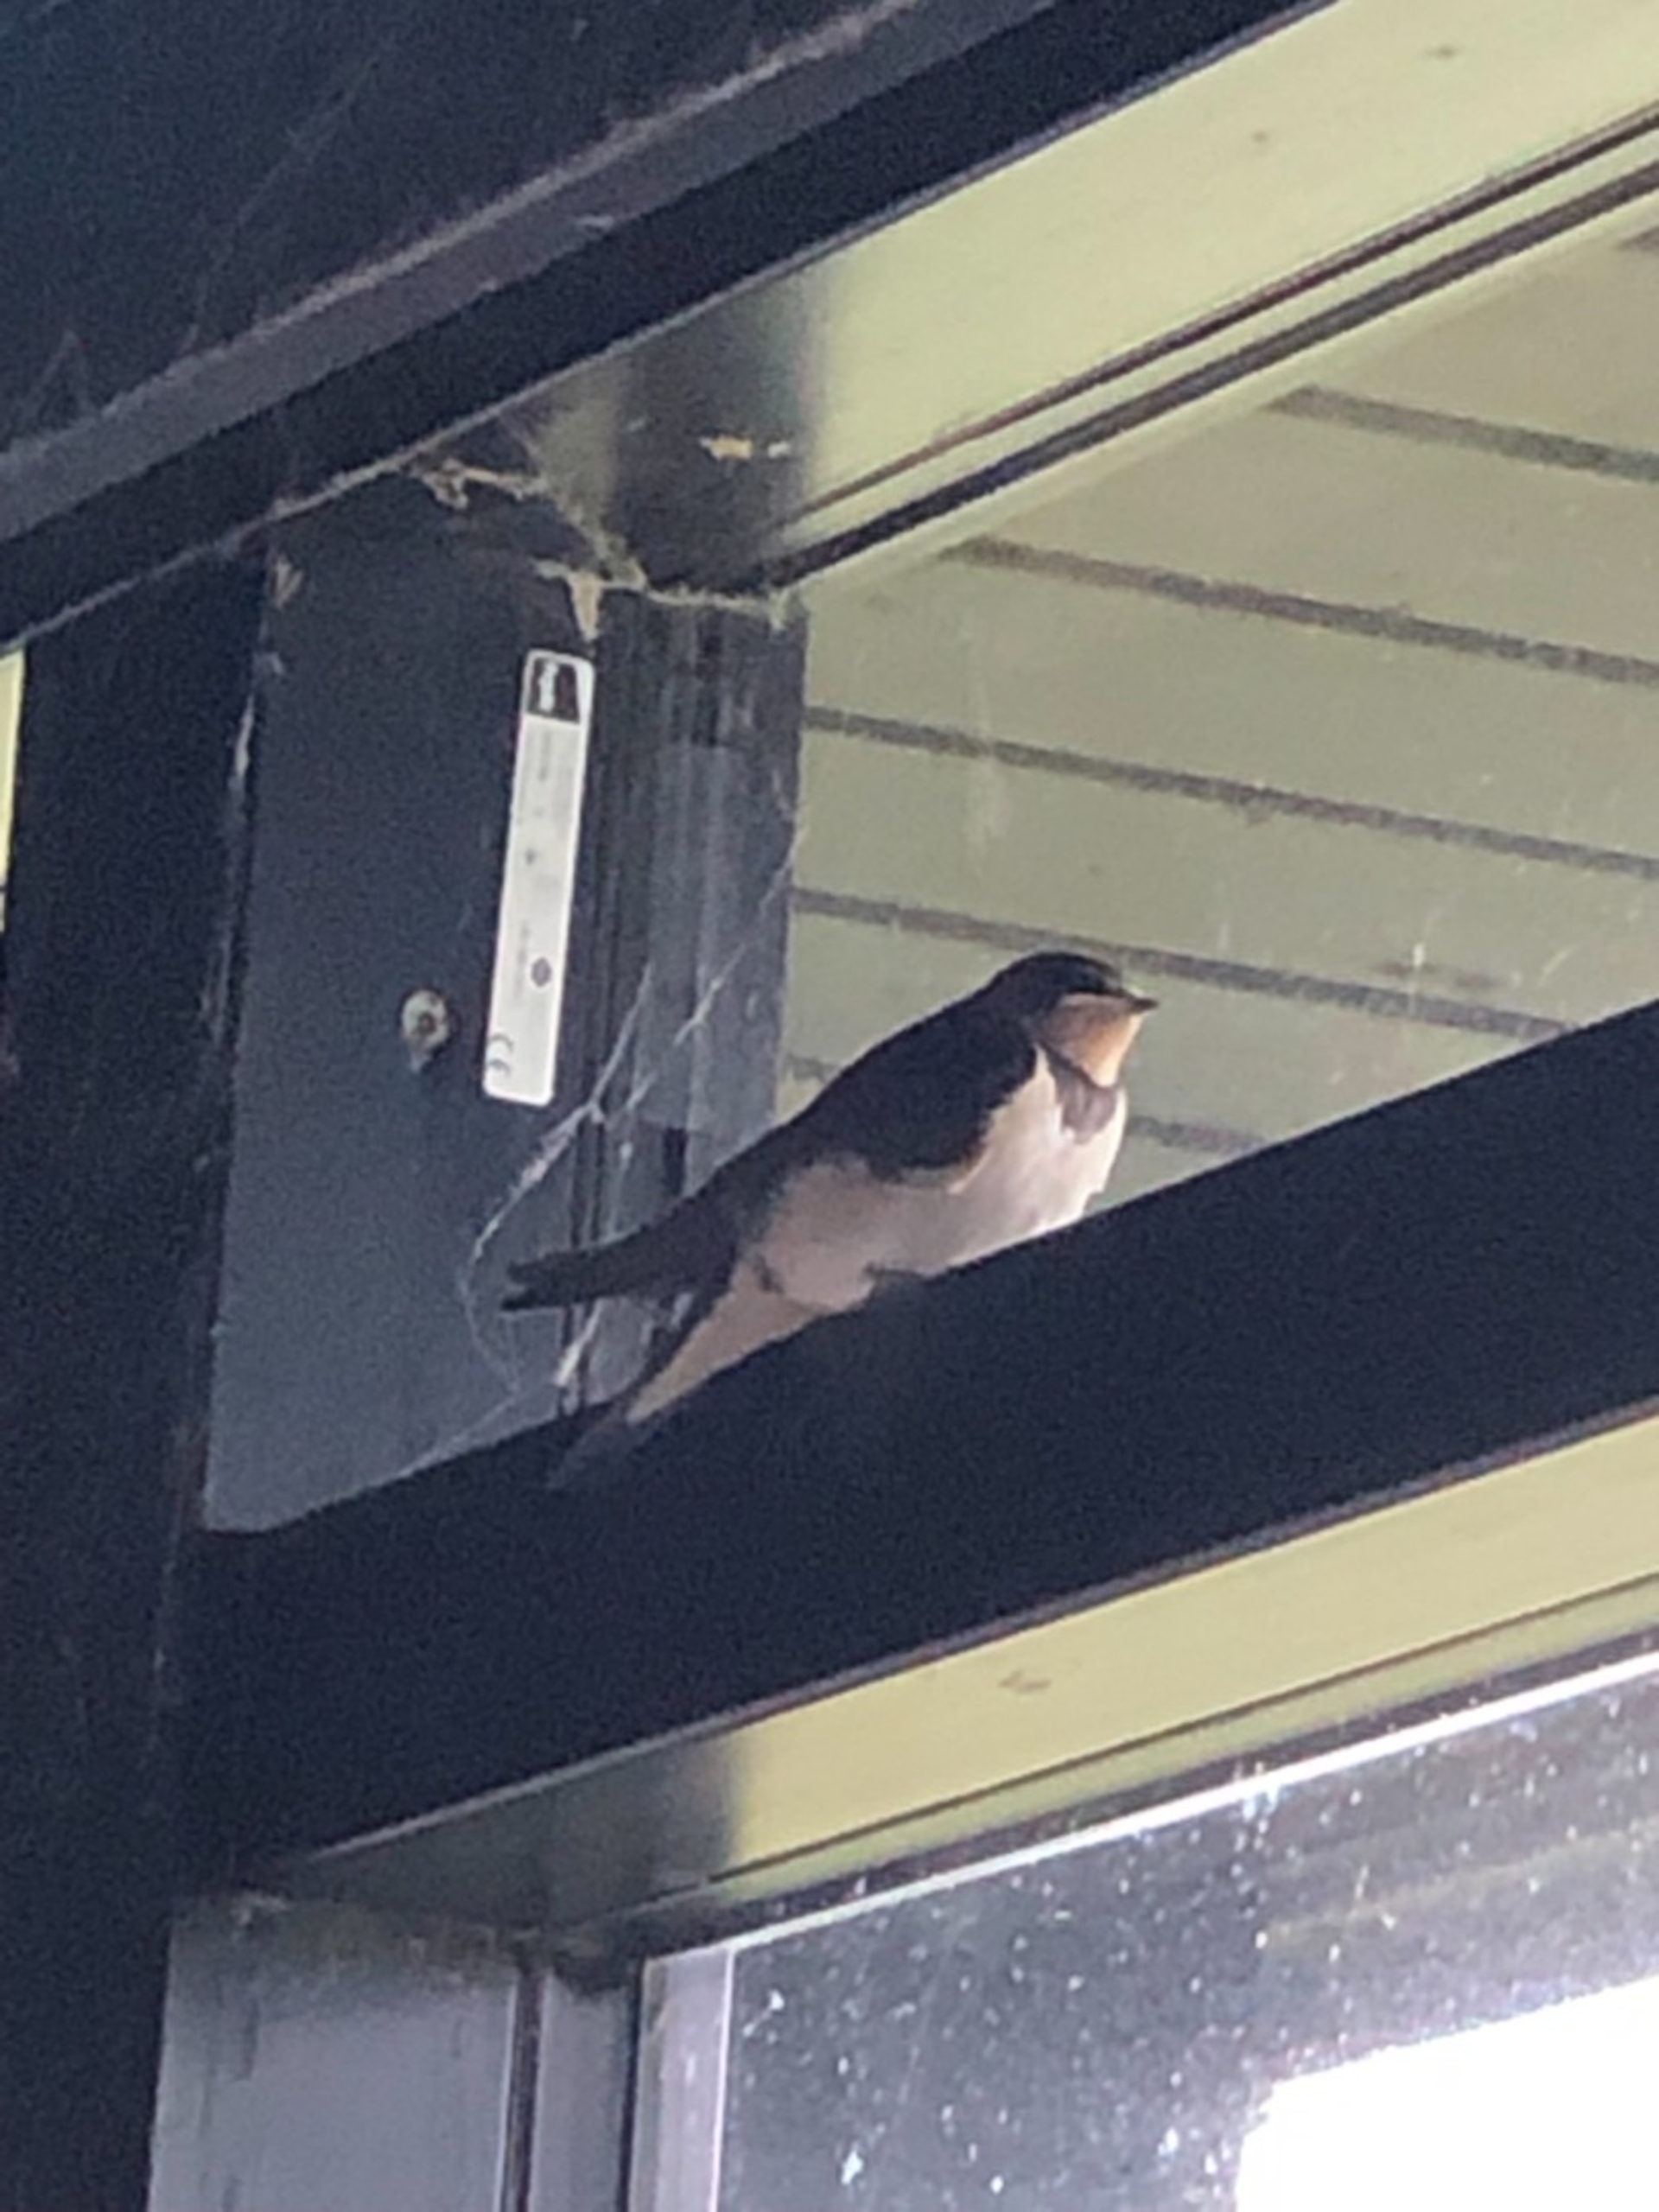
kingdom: Animalia
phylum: Chordata
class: Aves
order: Passeriformes
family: Hirundinidae
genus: Hirundo
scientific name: Hirundo rustica
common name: Landsvale
